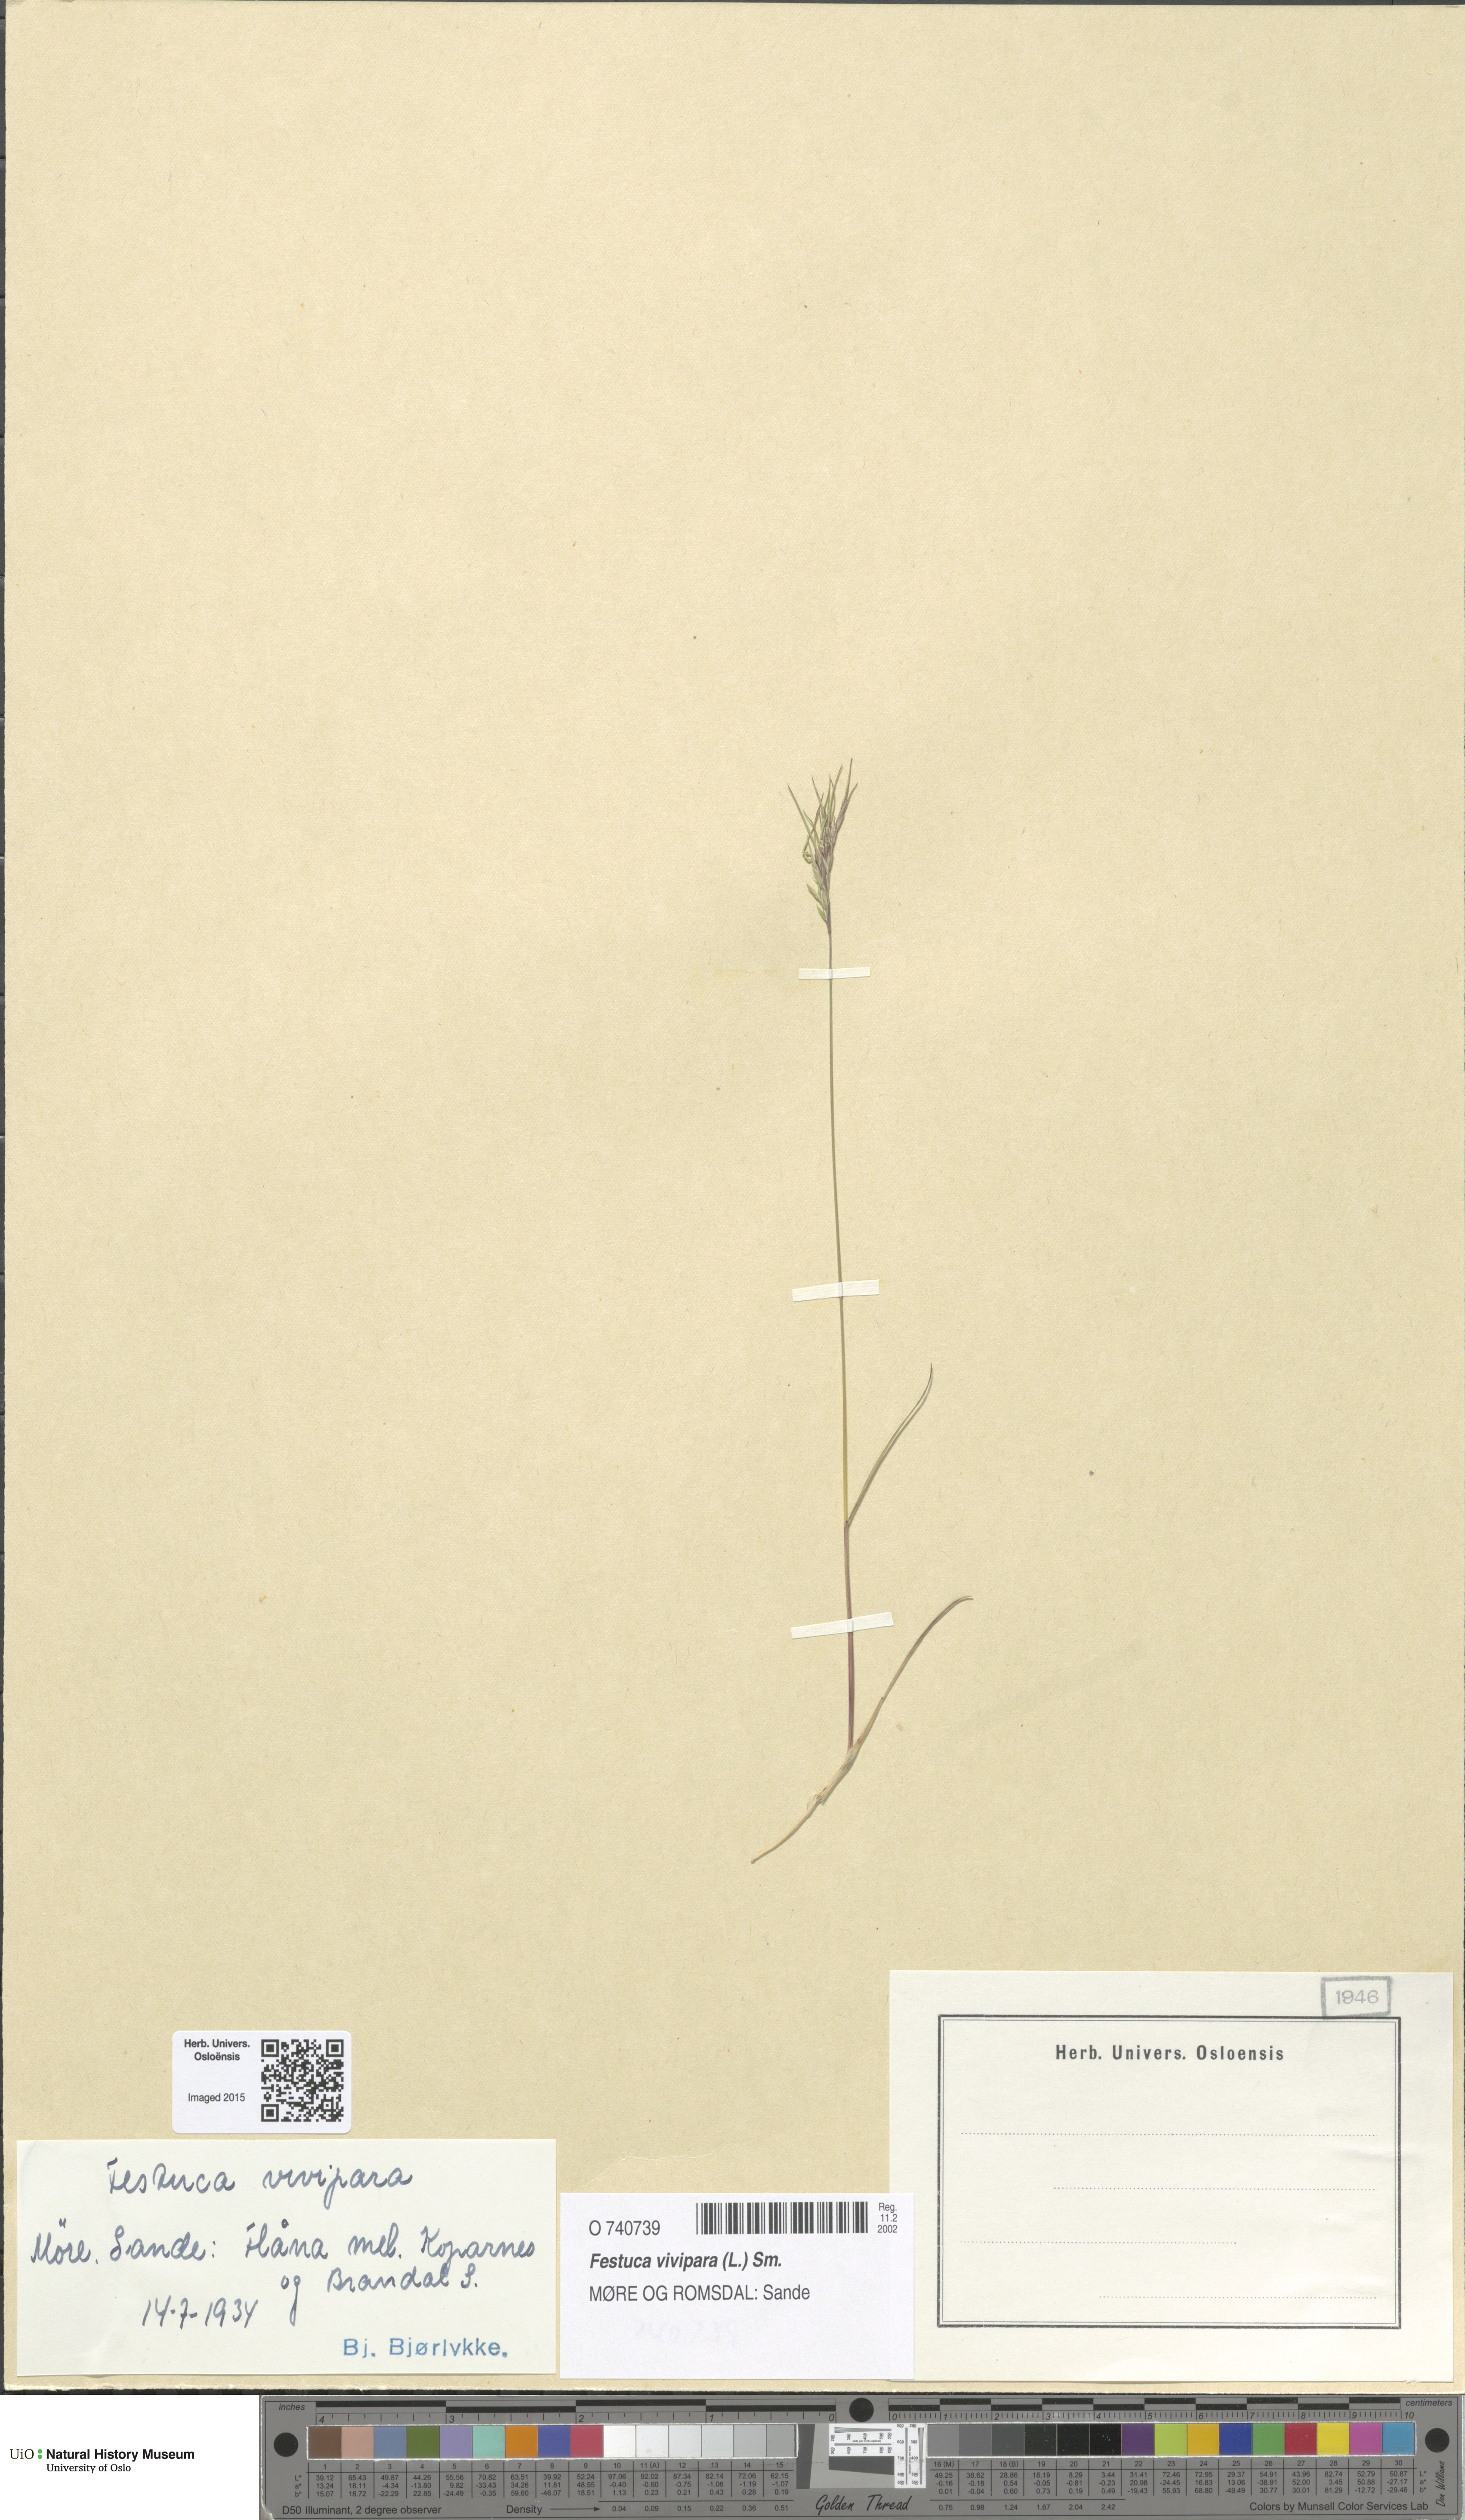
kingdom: Plantae
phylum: Tracheophyta
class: Liliopsida
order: Poales
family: Poaceae
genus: Festuca
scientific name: Festuca vivipara
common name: Viviparous sheep's-fescue
